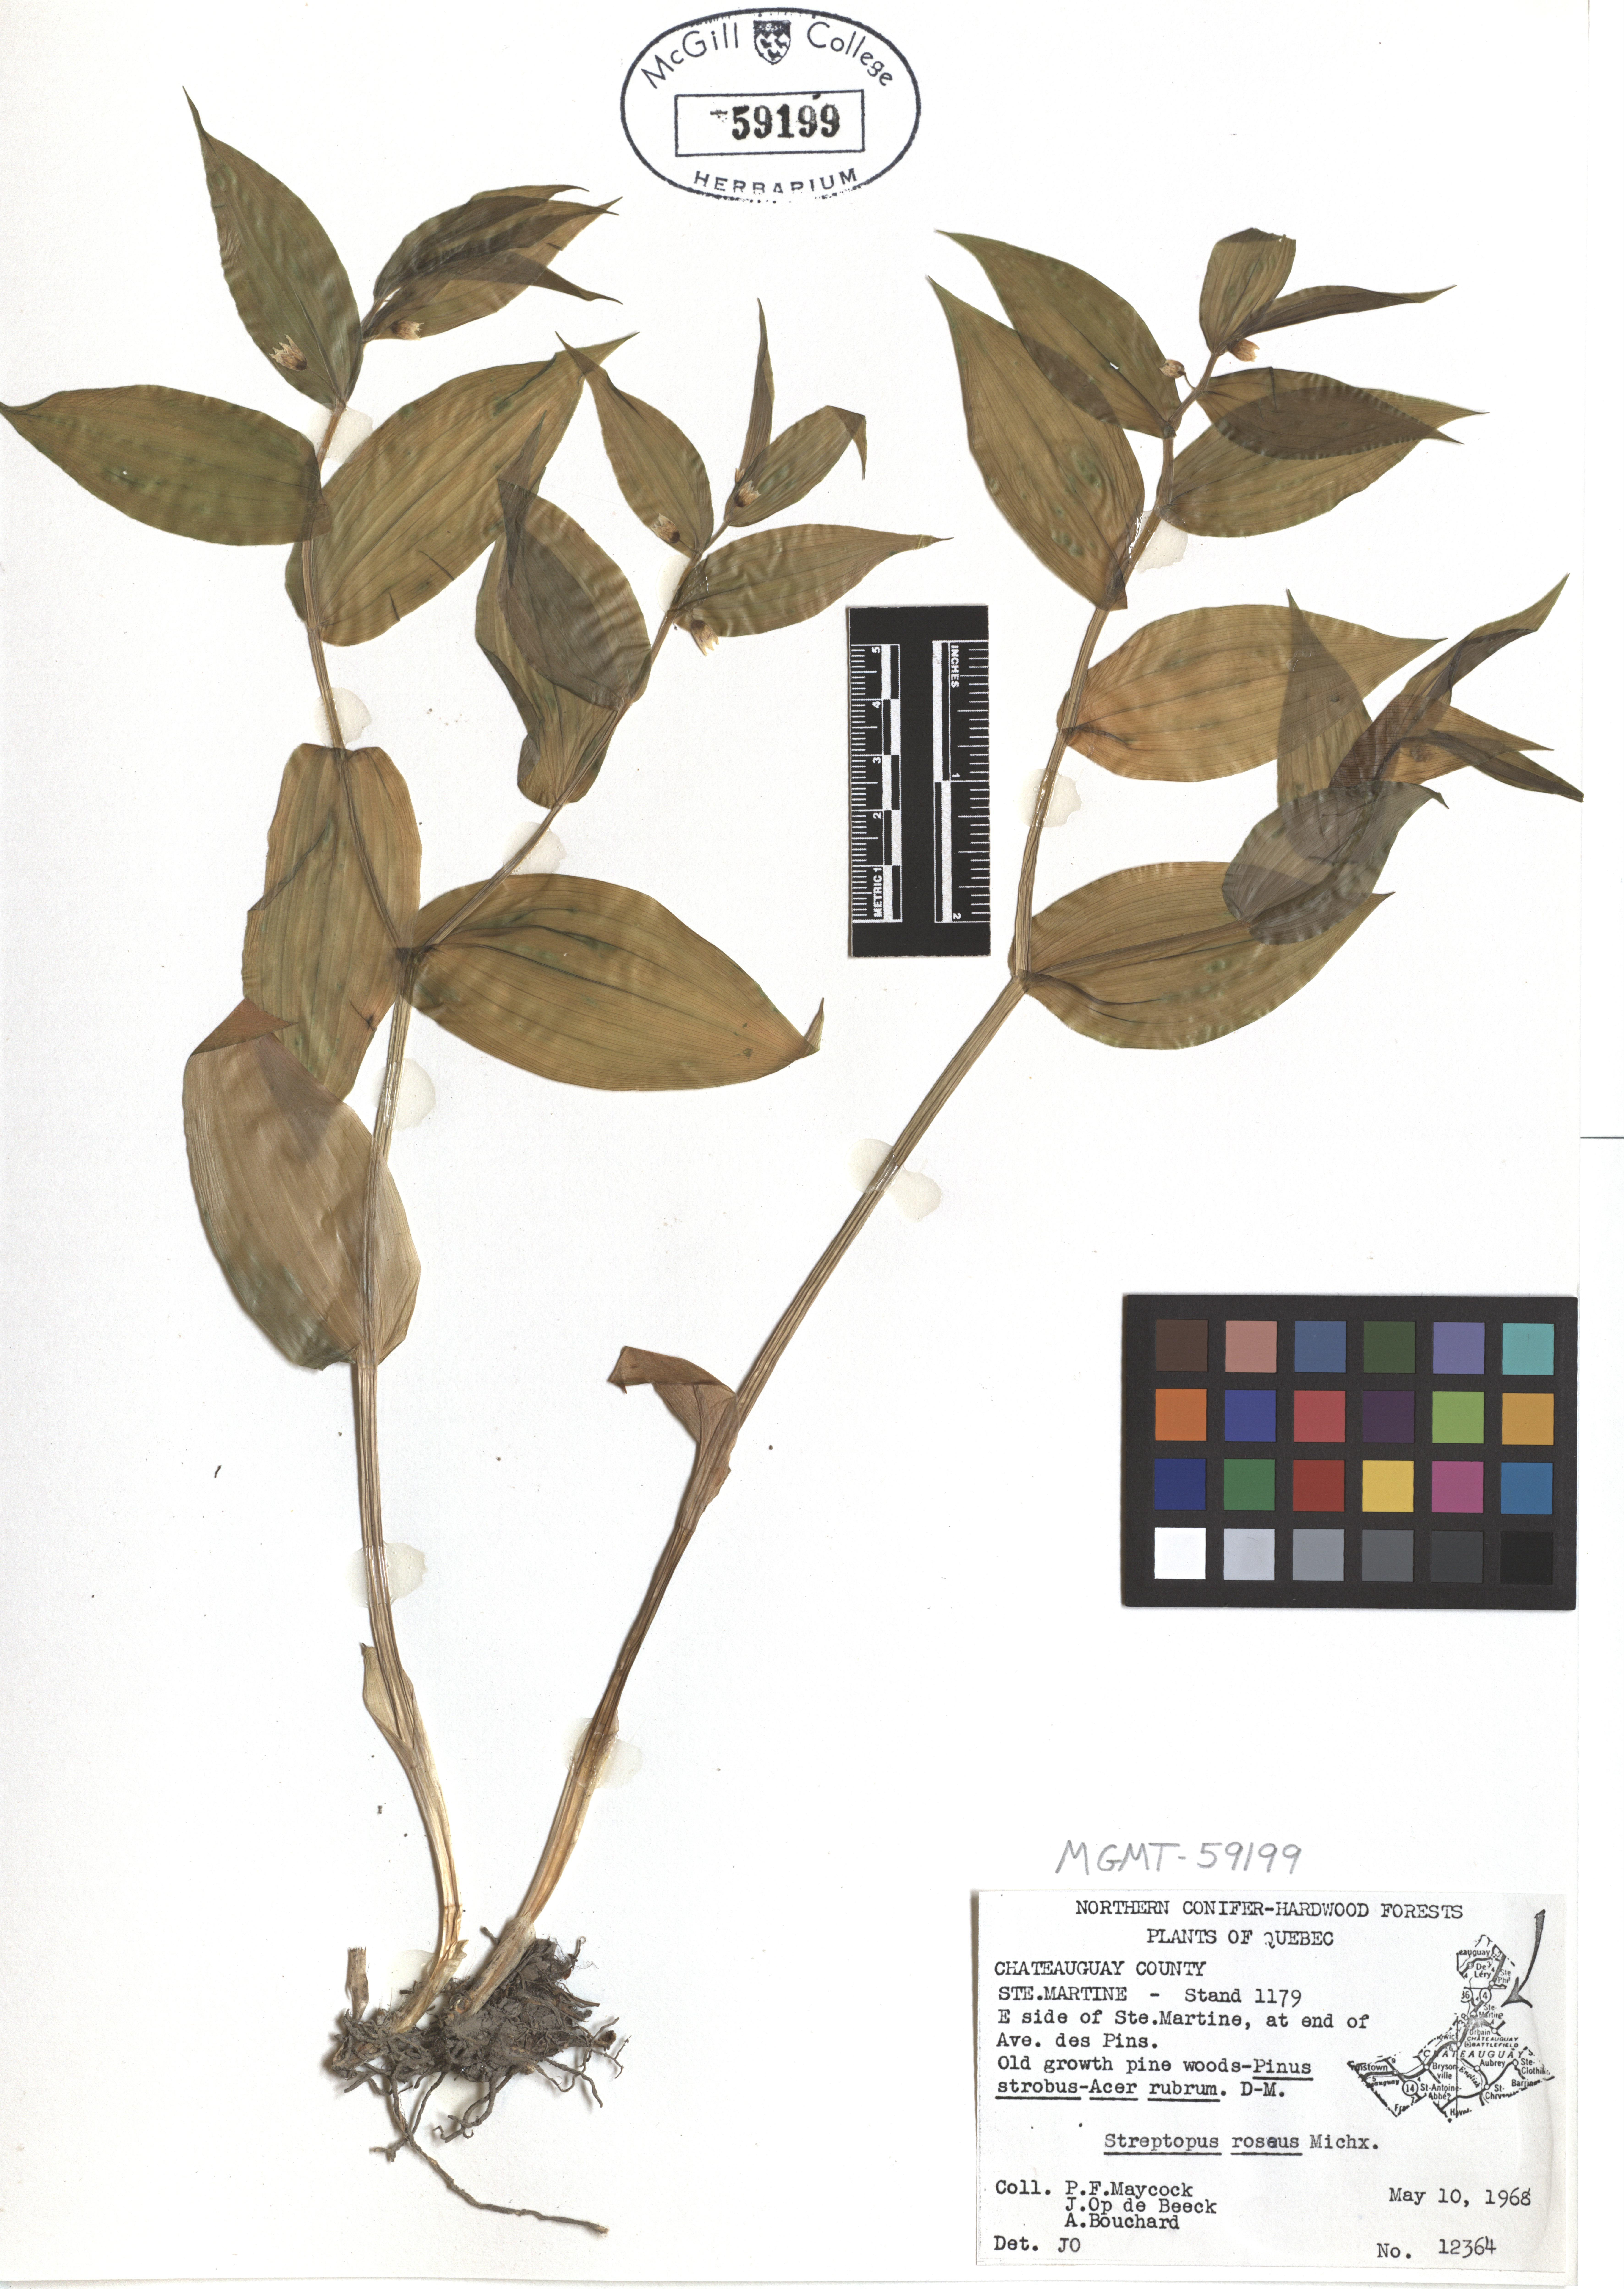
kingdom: Plantae
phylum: Tracheophyta
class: Liliopsida
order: Liliales
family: Liliaceae
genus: Streptopus
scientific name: Streptopus lanceolatus
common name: Rose mandarin
